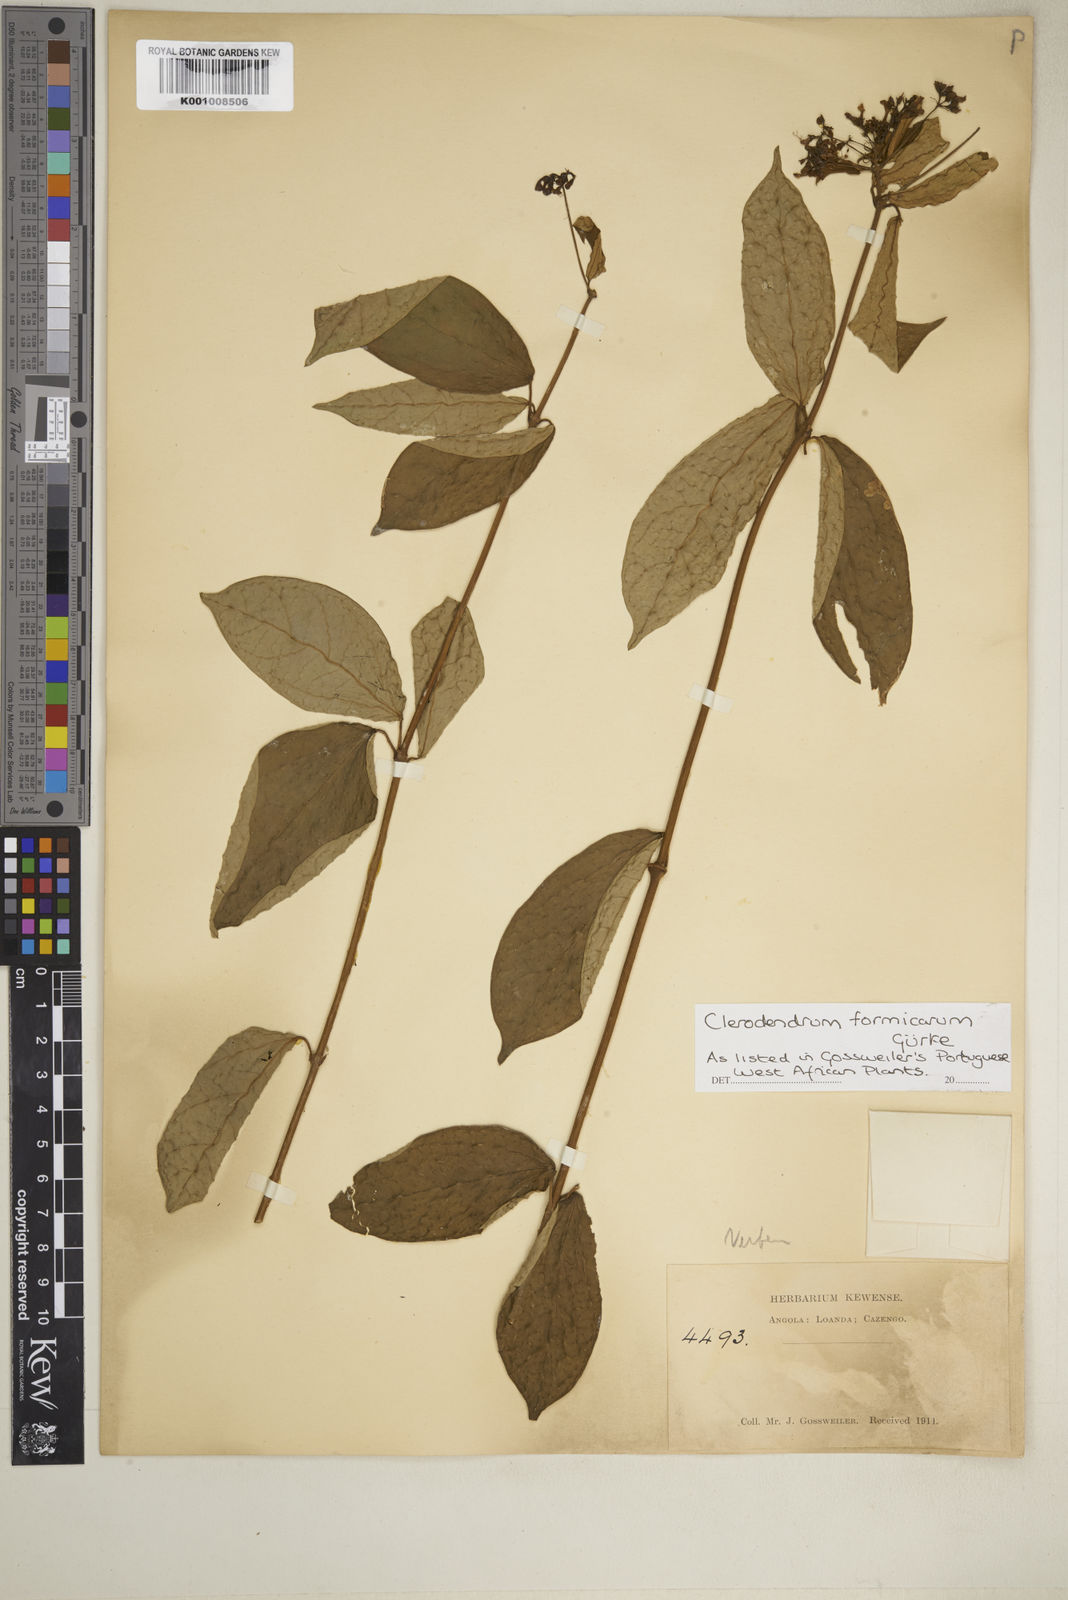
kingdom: Plantae
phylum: Tracheophyta
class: Magnoliopsida
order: Lamiales
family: Lamiaceae
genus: Clerodendrum
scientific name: Clerodendrum
